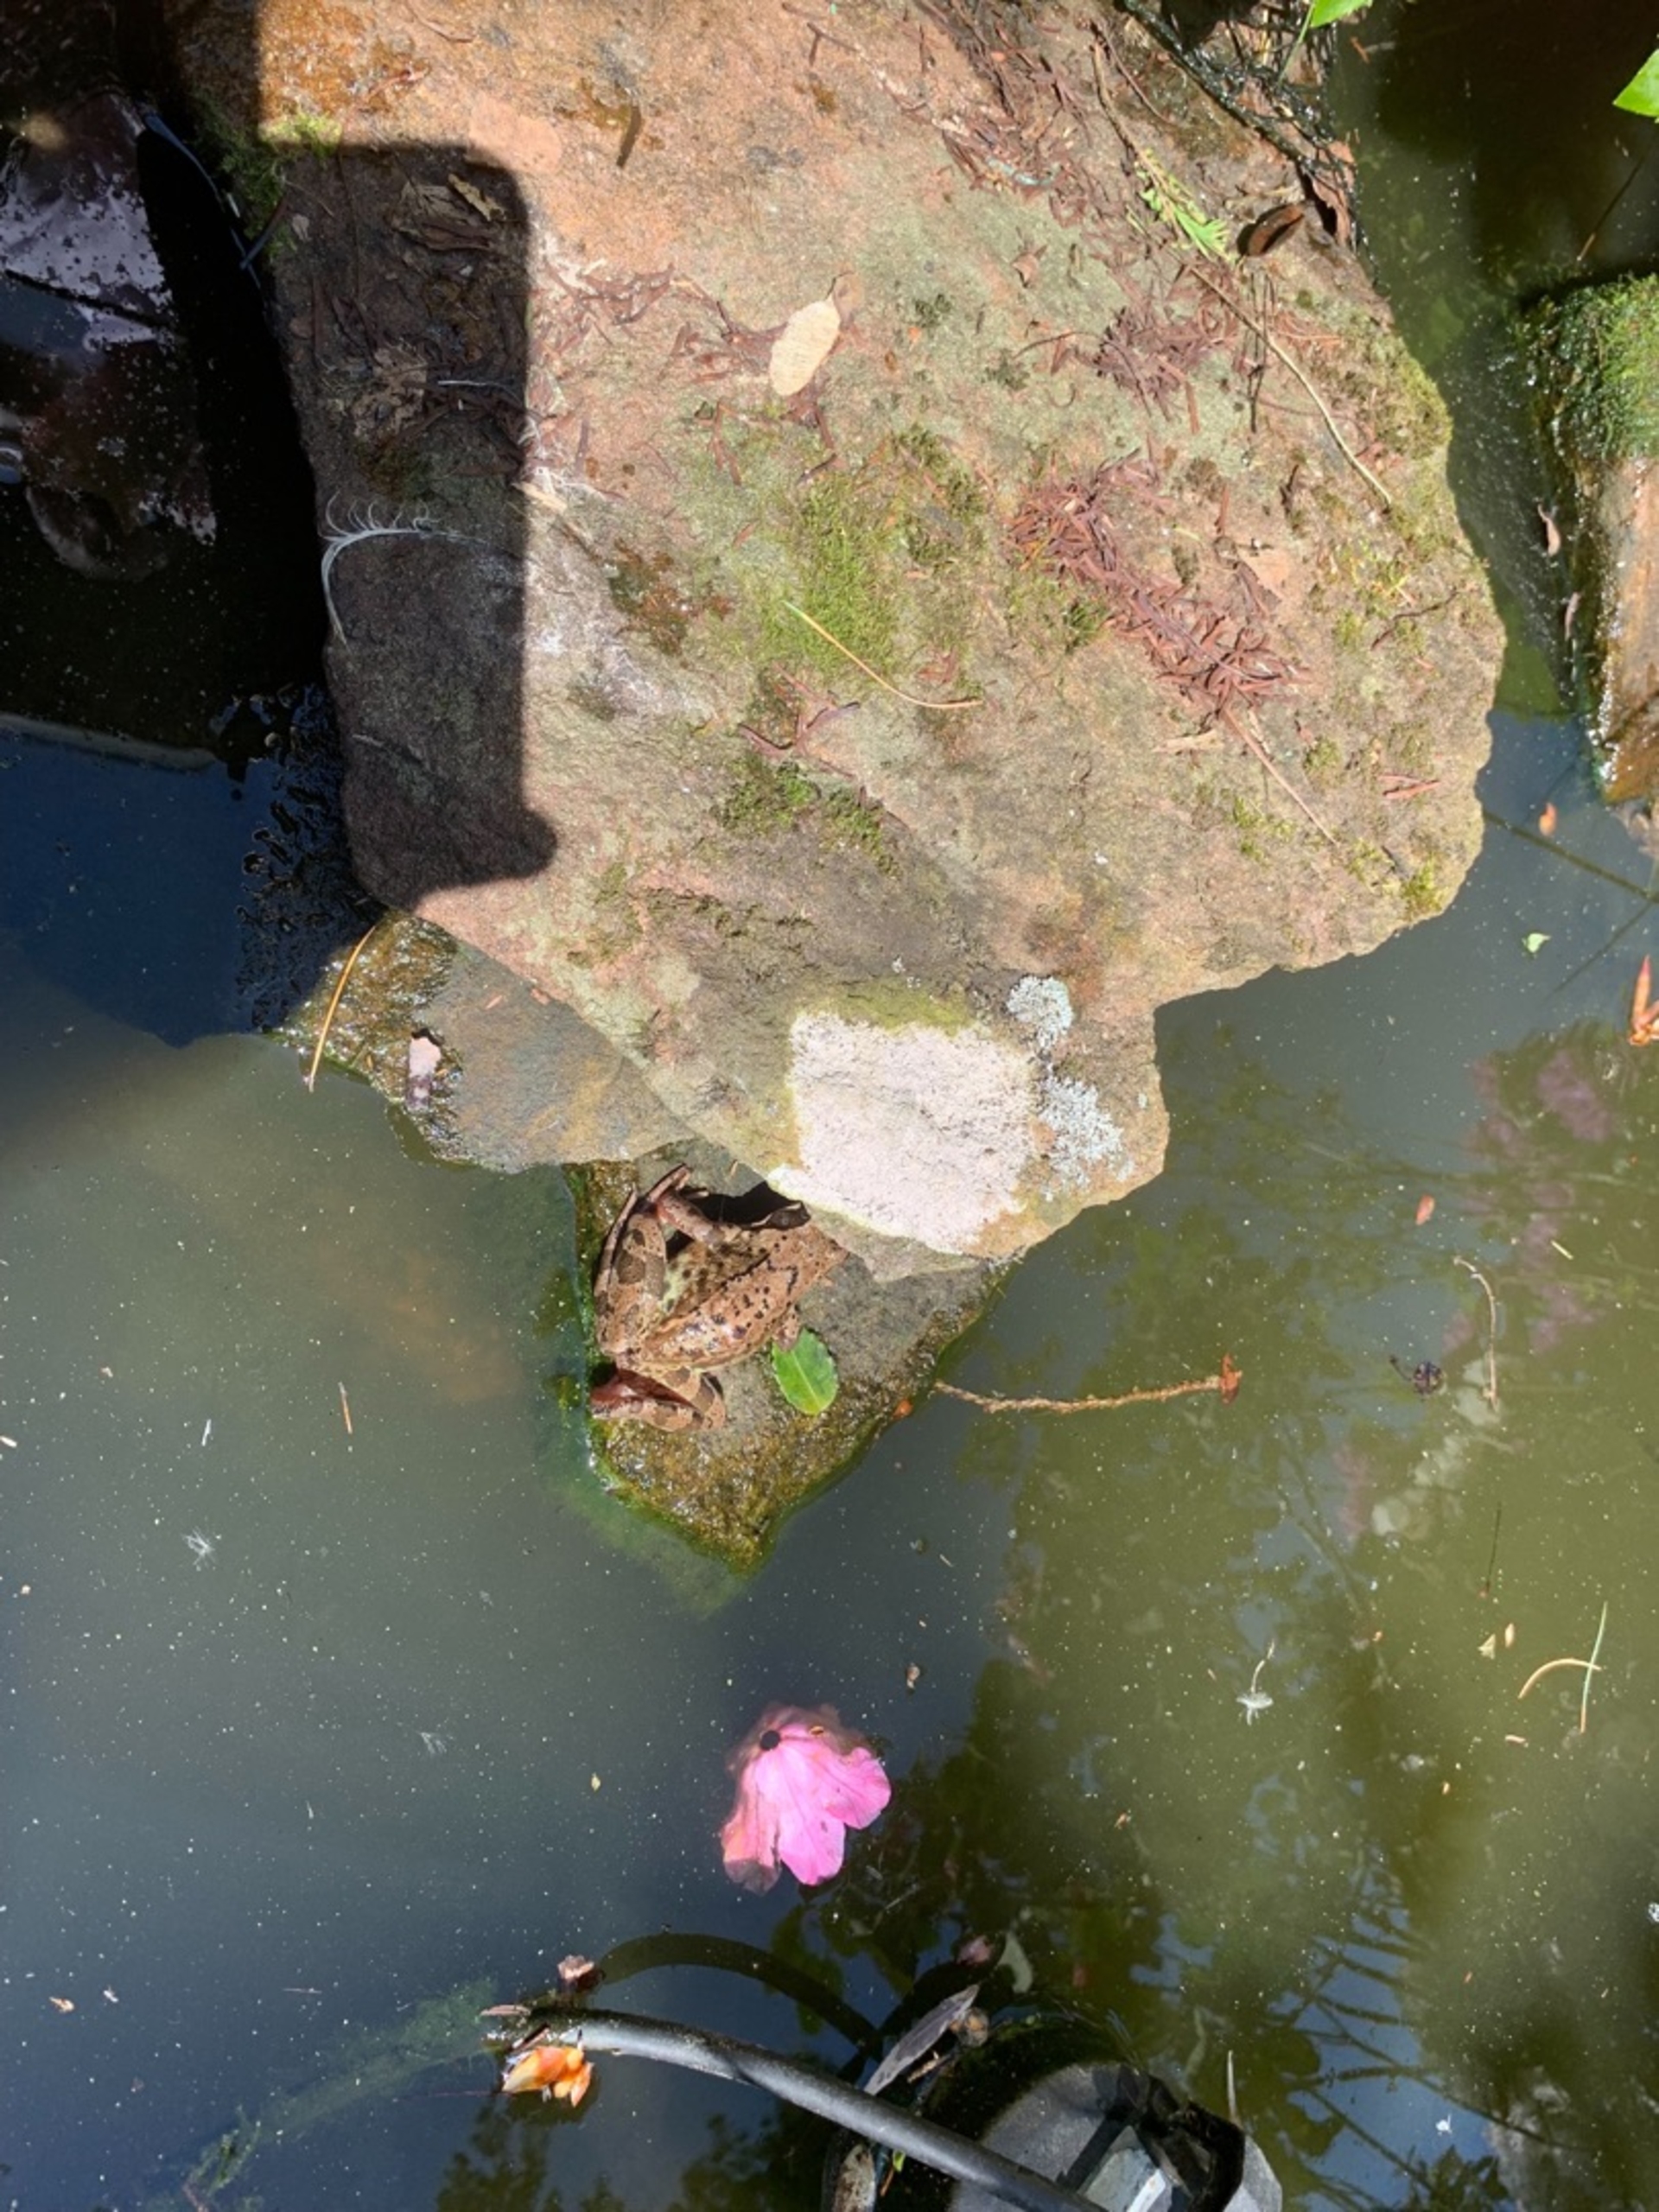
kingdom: Animalia
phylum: Chordata
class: Amphibia
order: Anura
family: Ranidae
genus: Rana
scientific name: Rana temporaria
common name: Butsnudet frø
